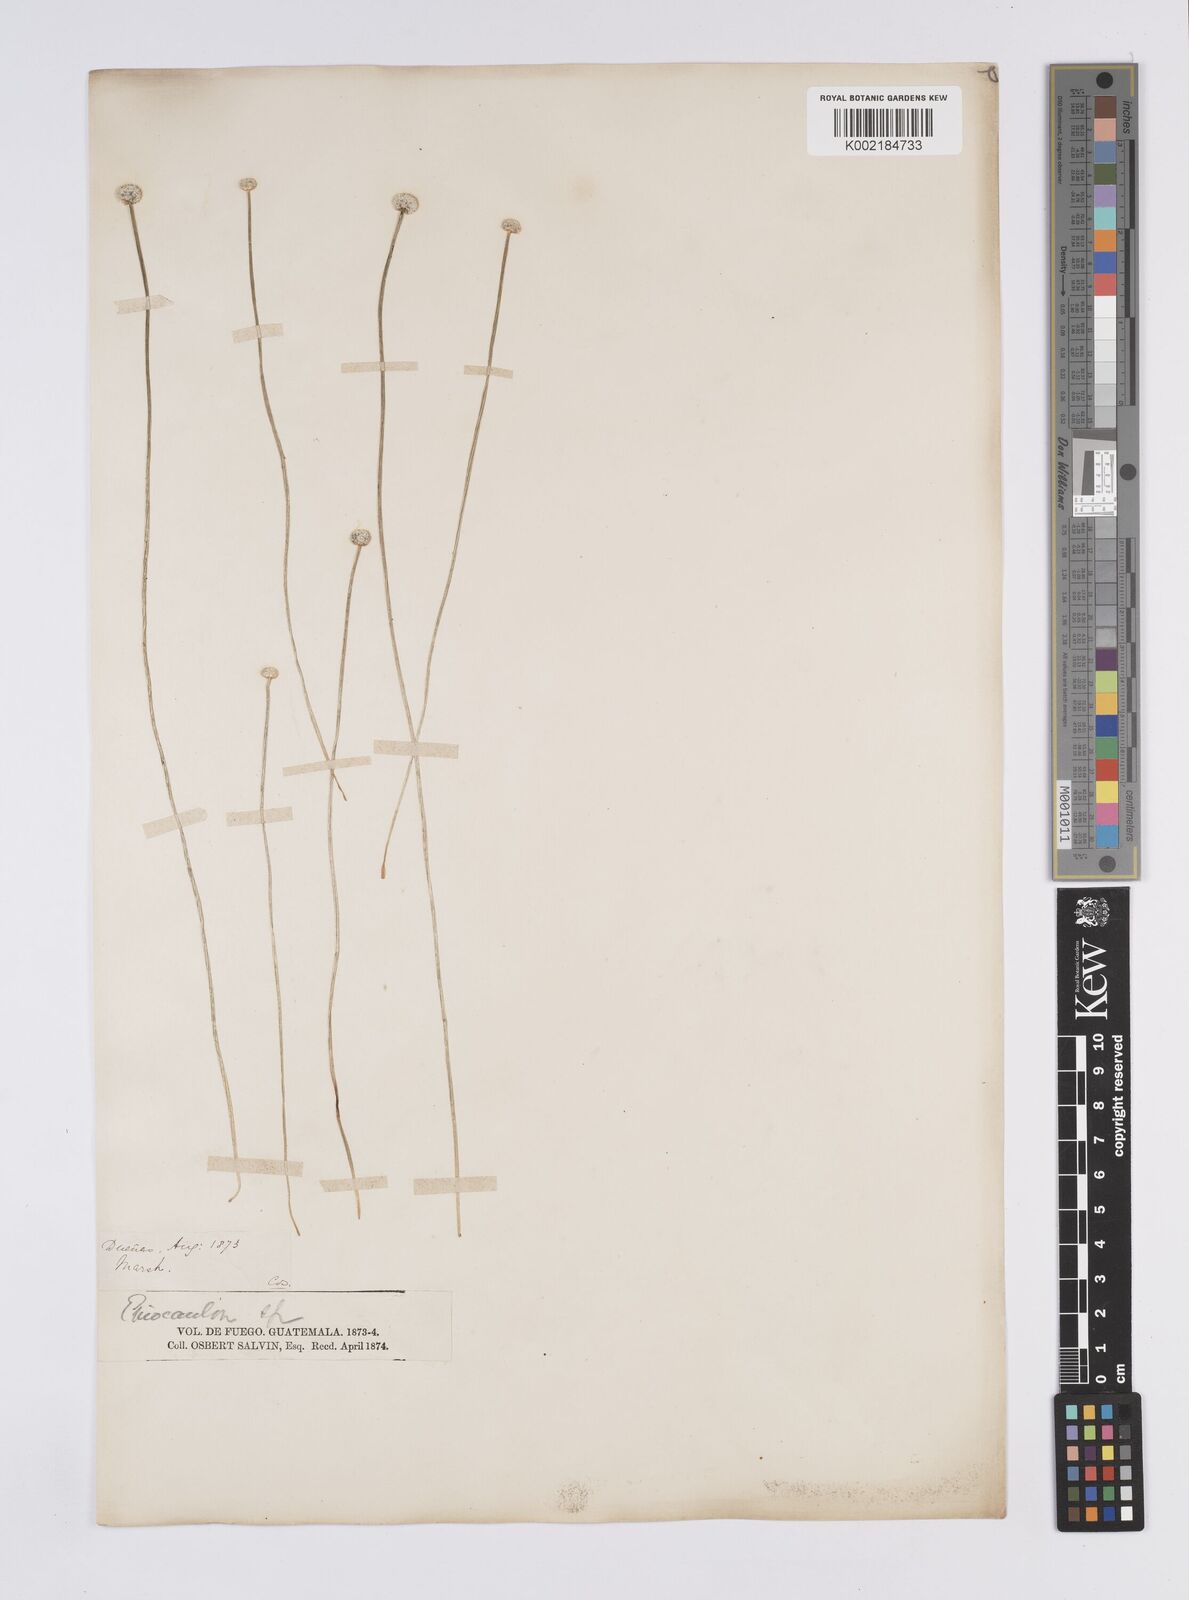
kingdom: Plantae
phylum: Tracheophyta
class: Liliopsida
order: Poales
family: Eriocaulaceae
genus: Eriocaulon
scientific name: Eriocaulon benthamii
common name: Bentham's pipewort
